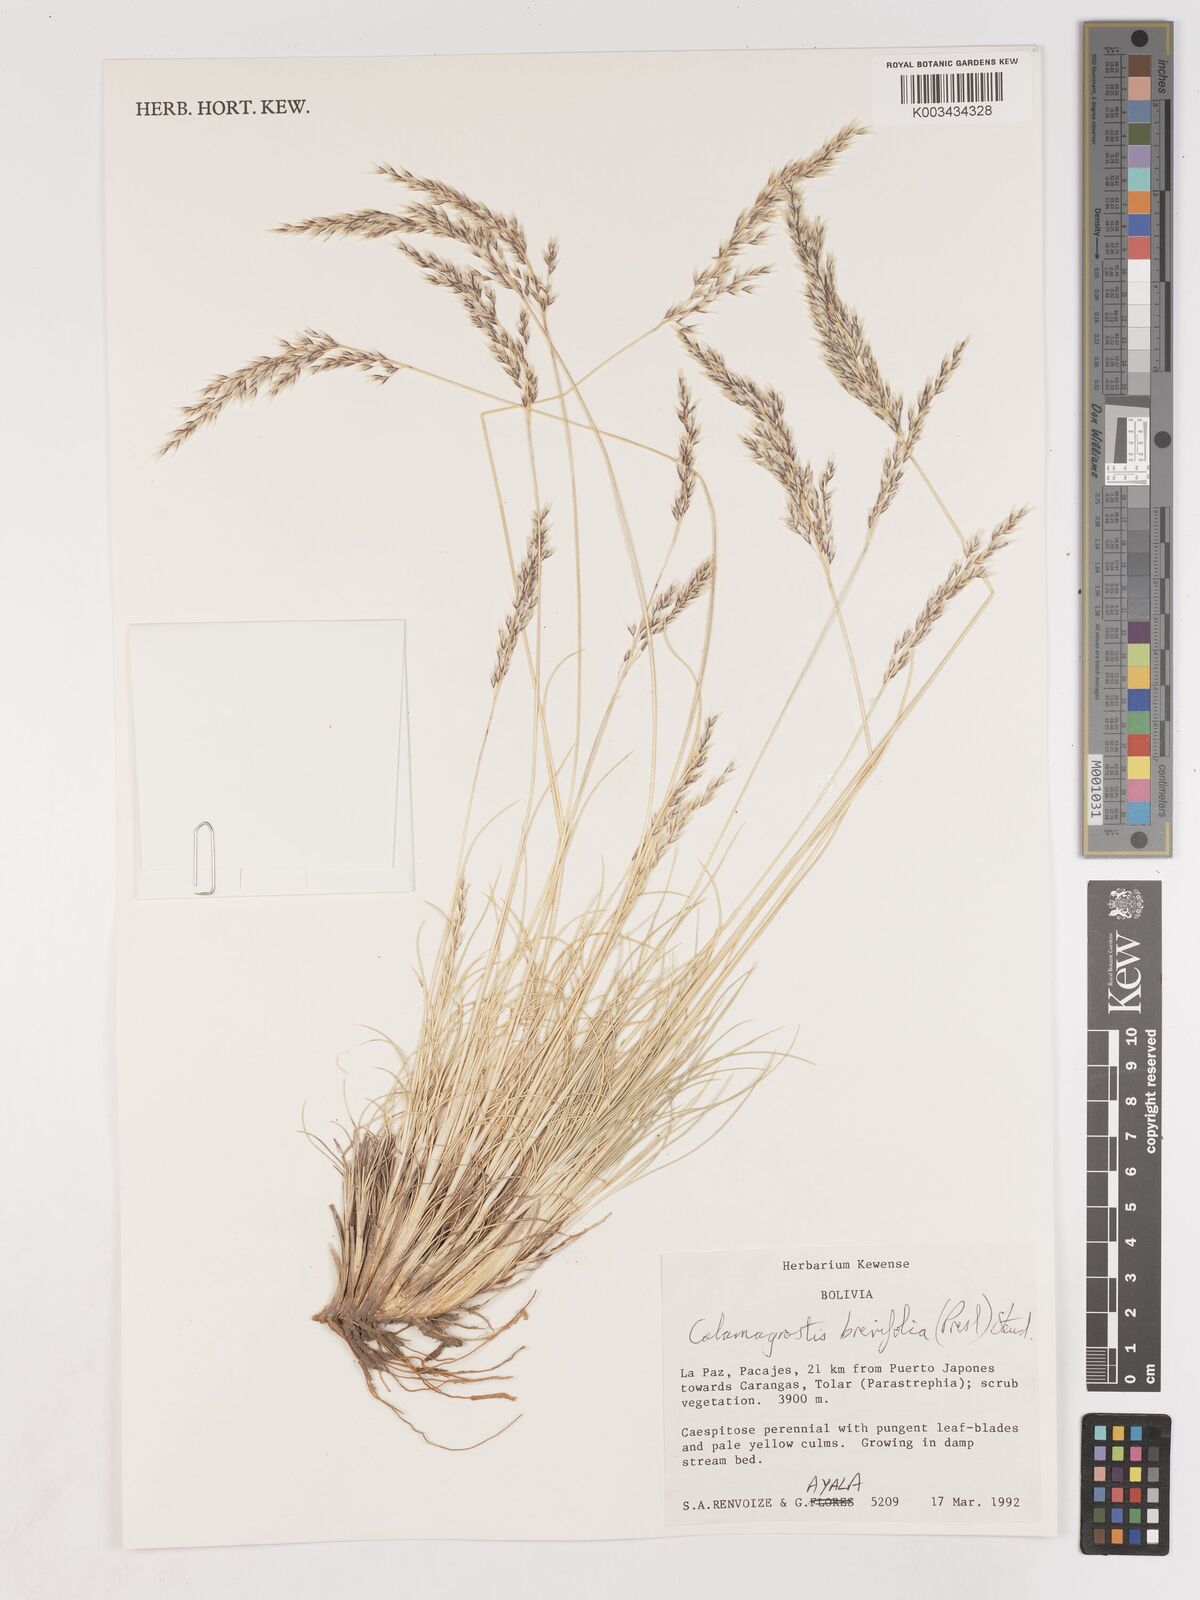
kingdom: Plantae
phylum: Tracheophyta
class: Liliopsida
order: Poales
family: Poaceae
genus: Cinnagrostis
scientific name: Cinnagrostis brevifolia
